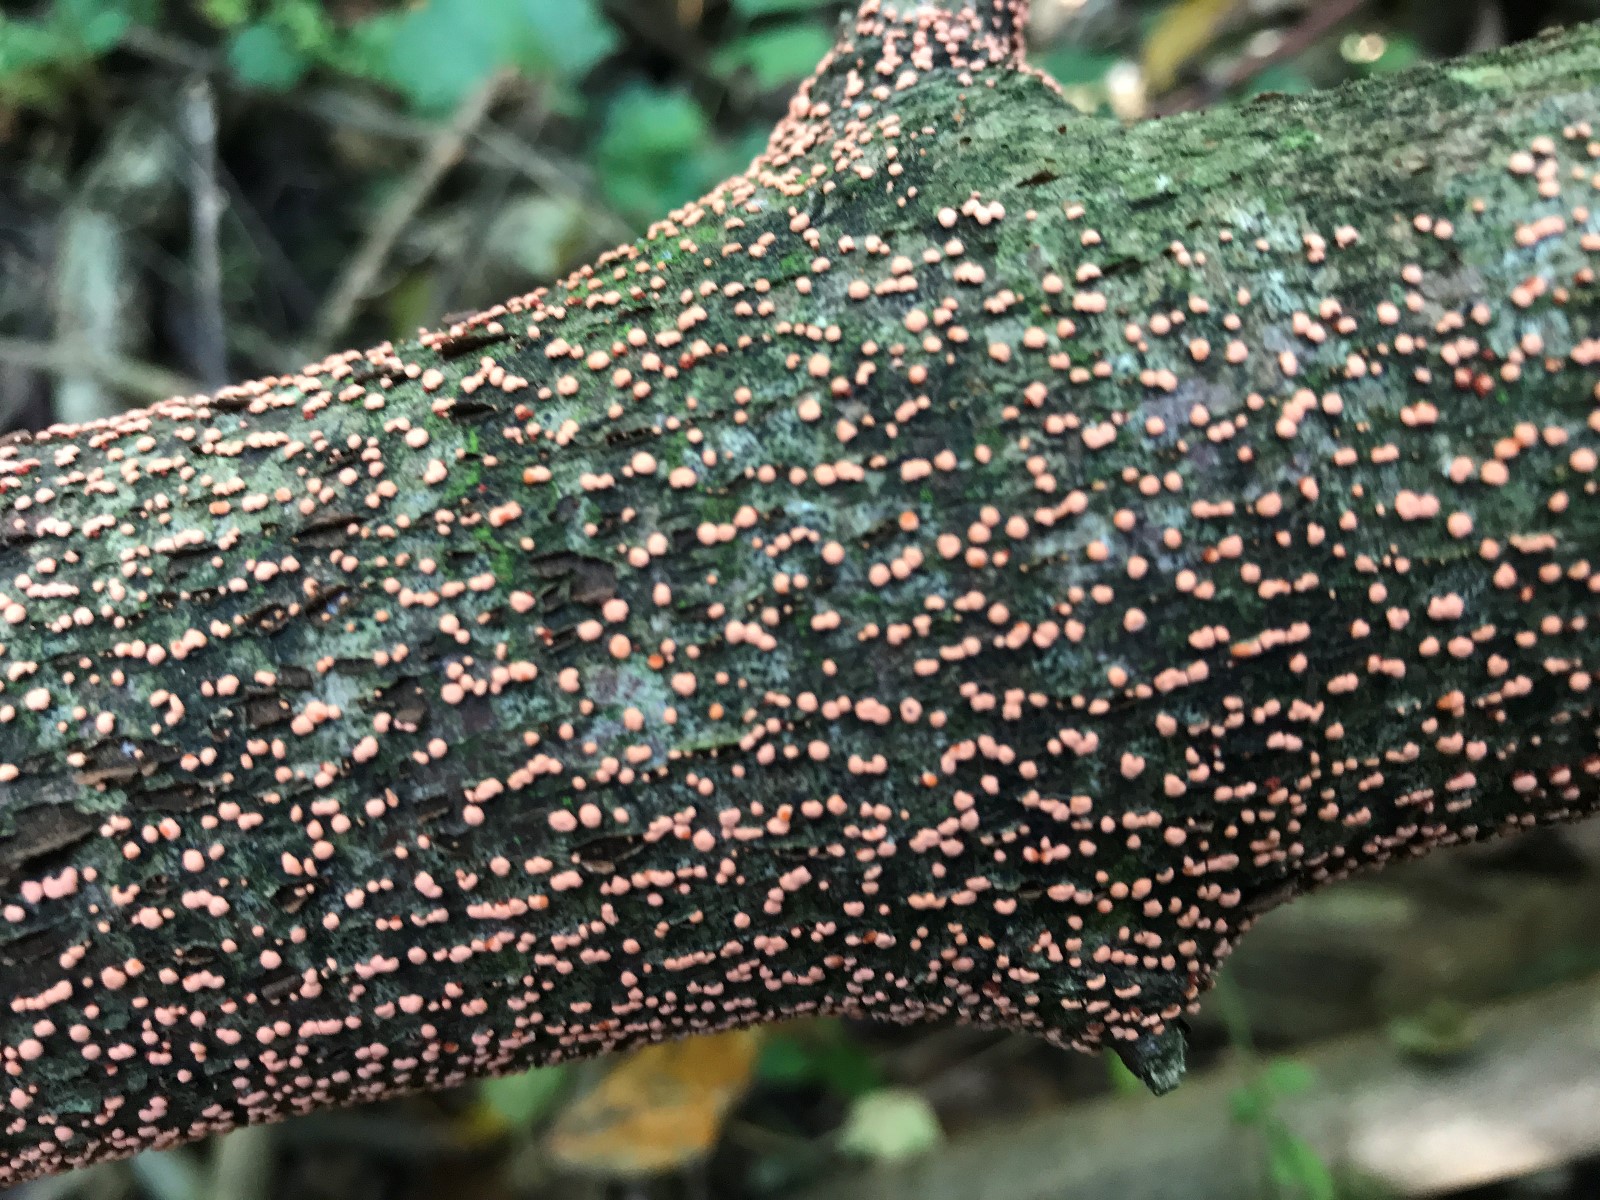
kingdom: Fungi
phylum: Ascomycota
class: Sordariomycetes
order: Hypocreales
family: Nectriaceae
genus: Nectria
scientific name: Nectria cinnabarina
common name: almindelig cinnobersvamp
